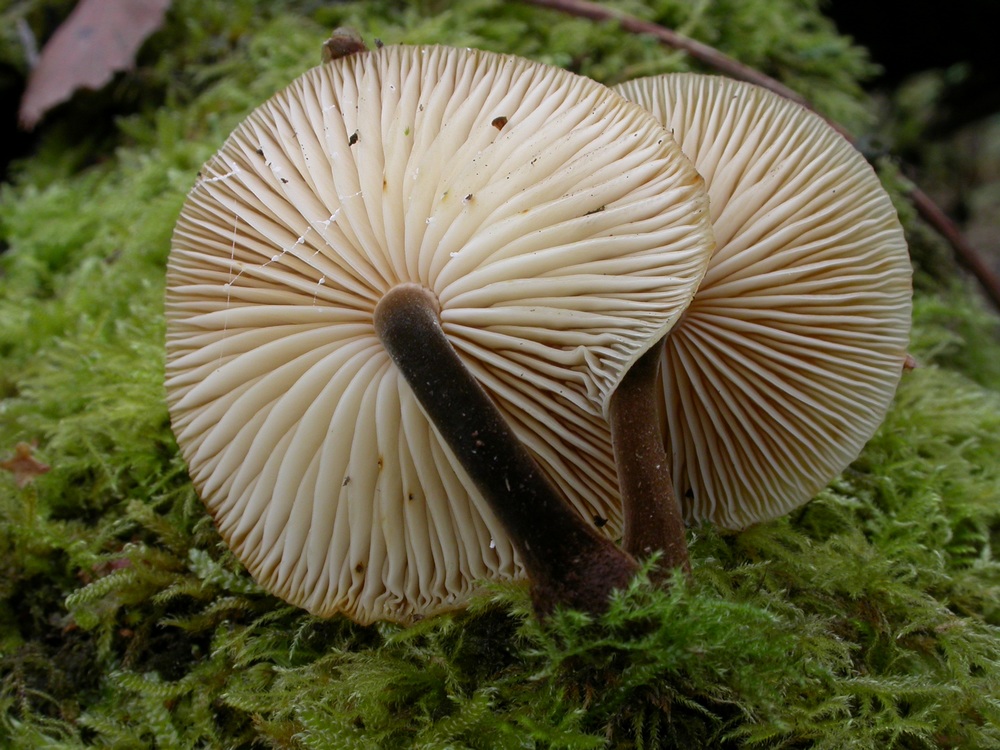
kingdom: Fungi
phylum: Basidiomycota
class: Agaricomycetes
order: Agaricales
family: Physalacriaceae
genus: Flammulina
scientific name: Flammulina elastica
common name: pile-fløjlsfod
